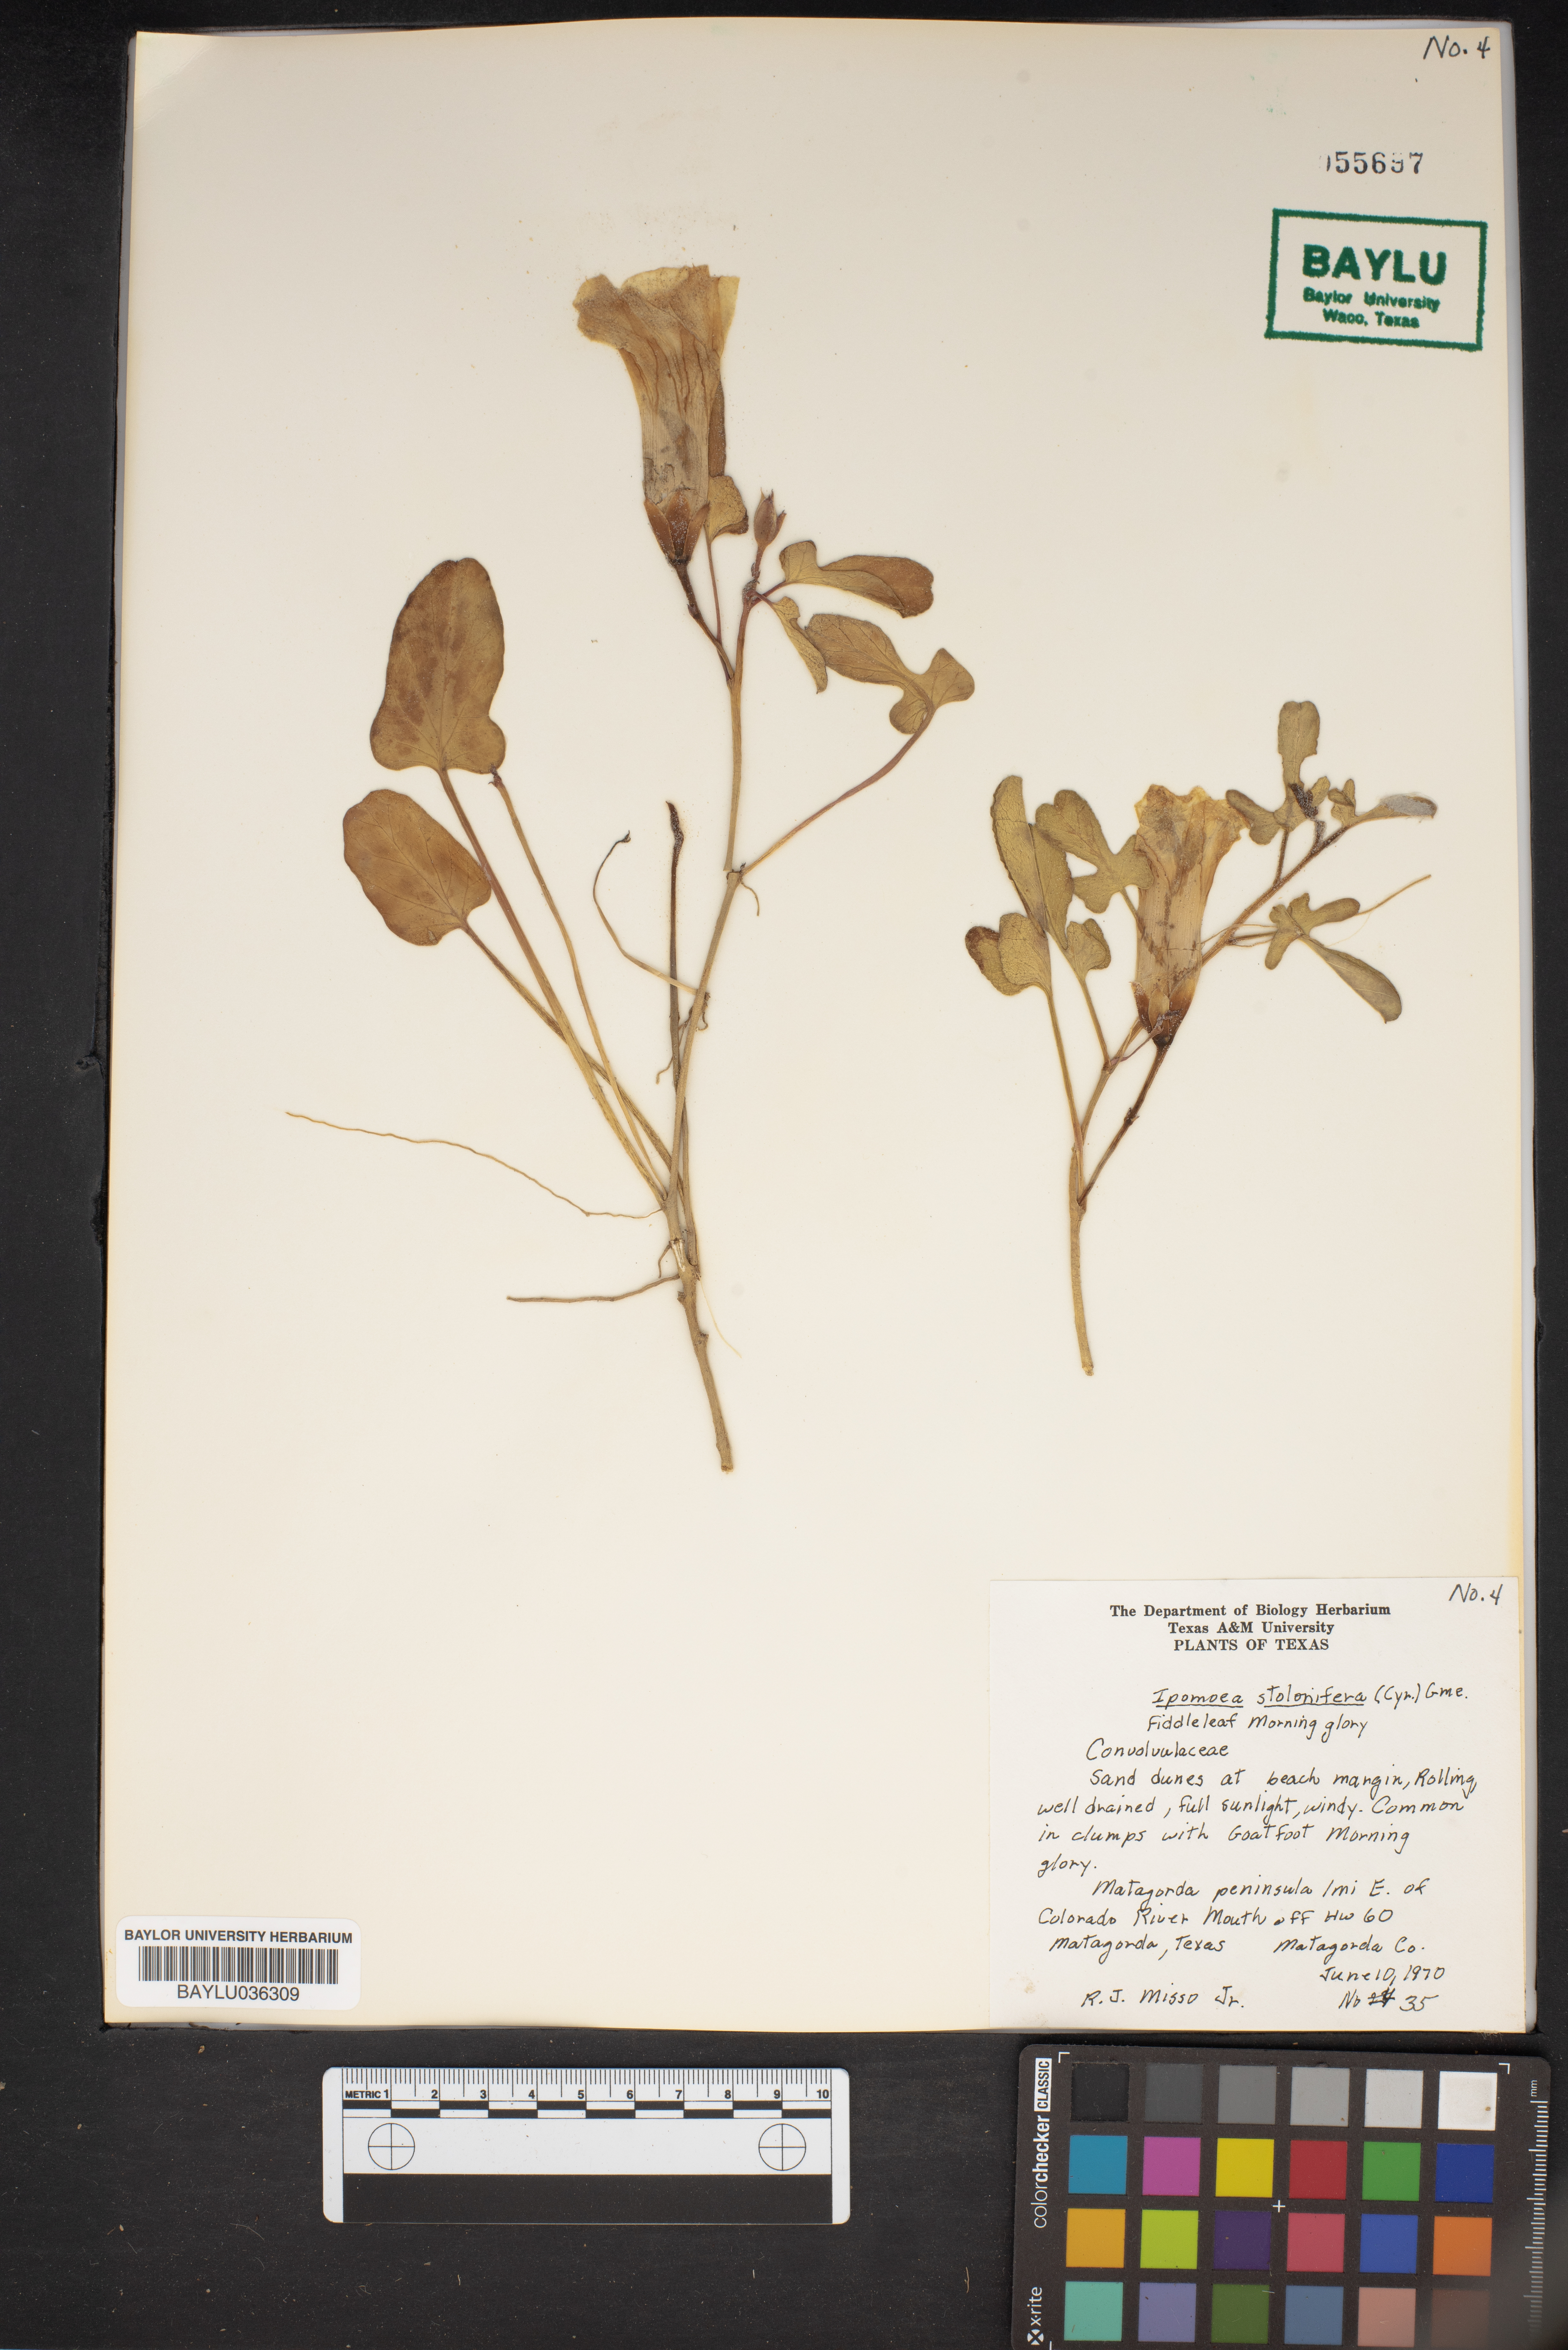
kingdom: Plantae
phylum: Tracheophyta
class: Magnoliopsida
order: Solanales
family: Convolvulaceae
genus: Ipomoea
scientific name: Ipomoea imperati
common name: Fiddle-leaf morning-glory
